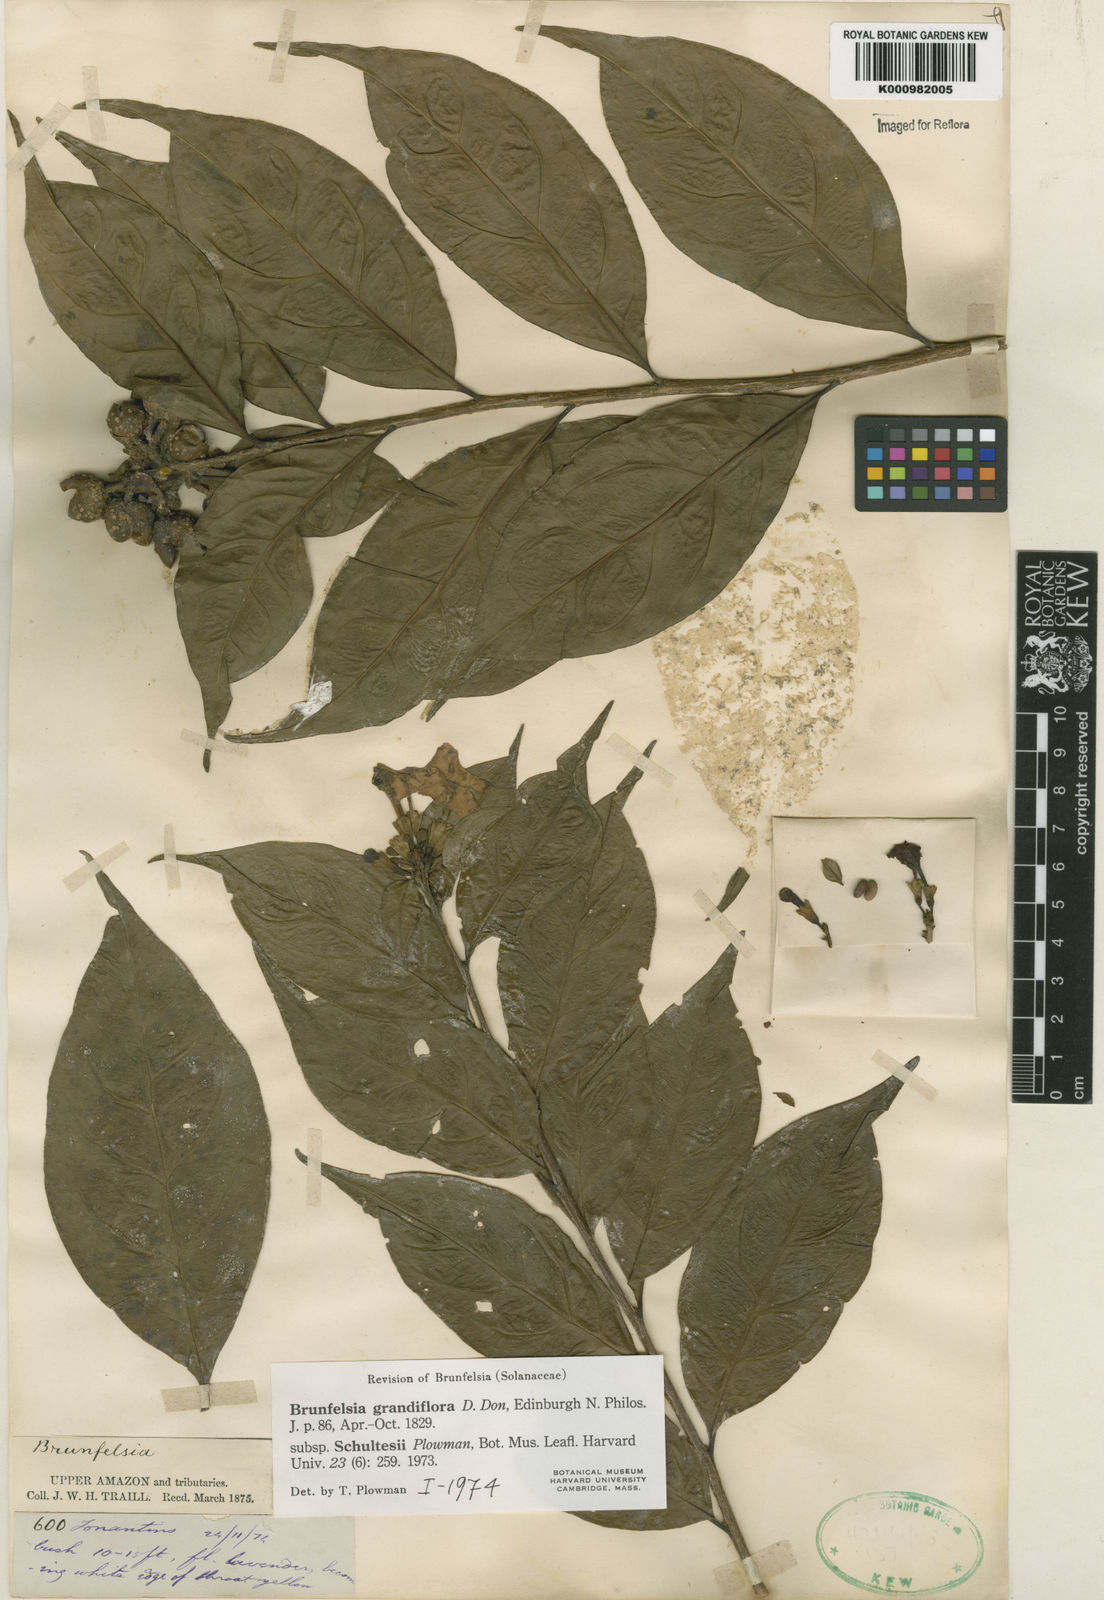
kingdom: Plantae
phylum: Tracheophyta
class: Magnoliopsida
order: Solanales
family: Solanaceae
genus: Brunfelsia
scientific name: Brunfelsia grandiflora
